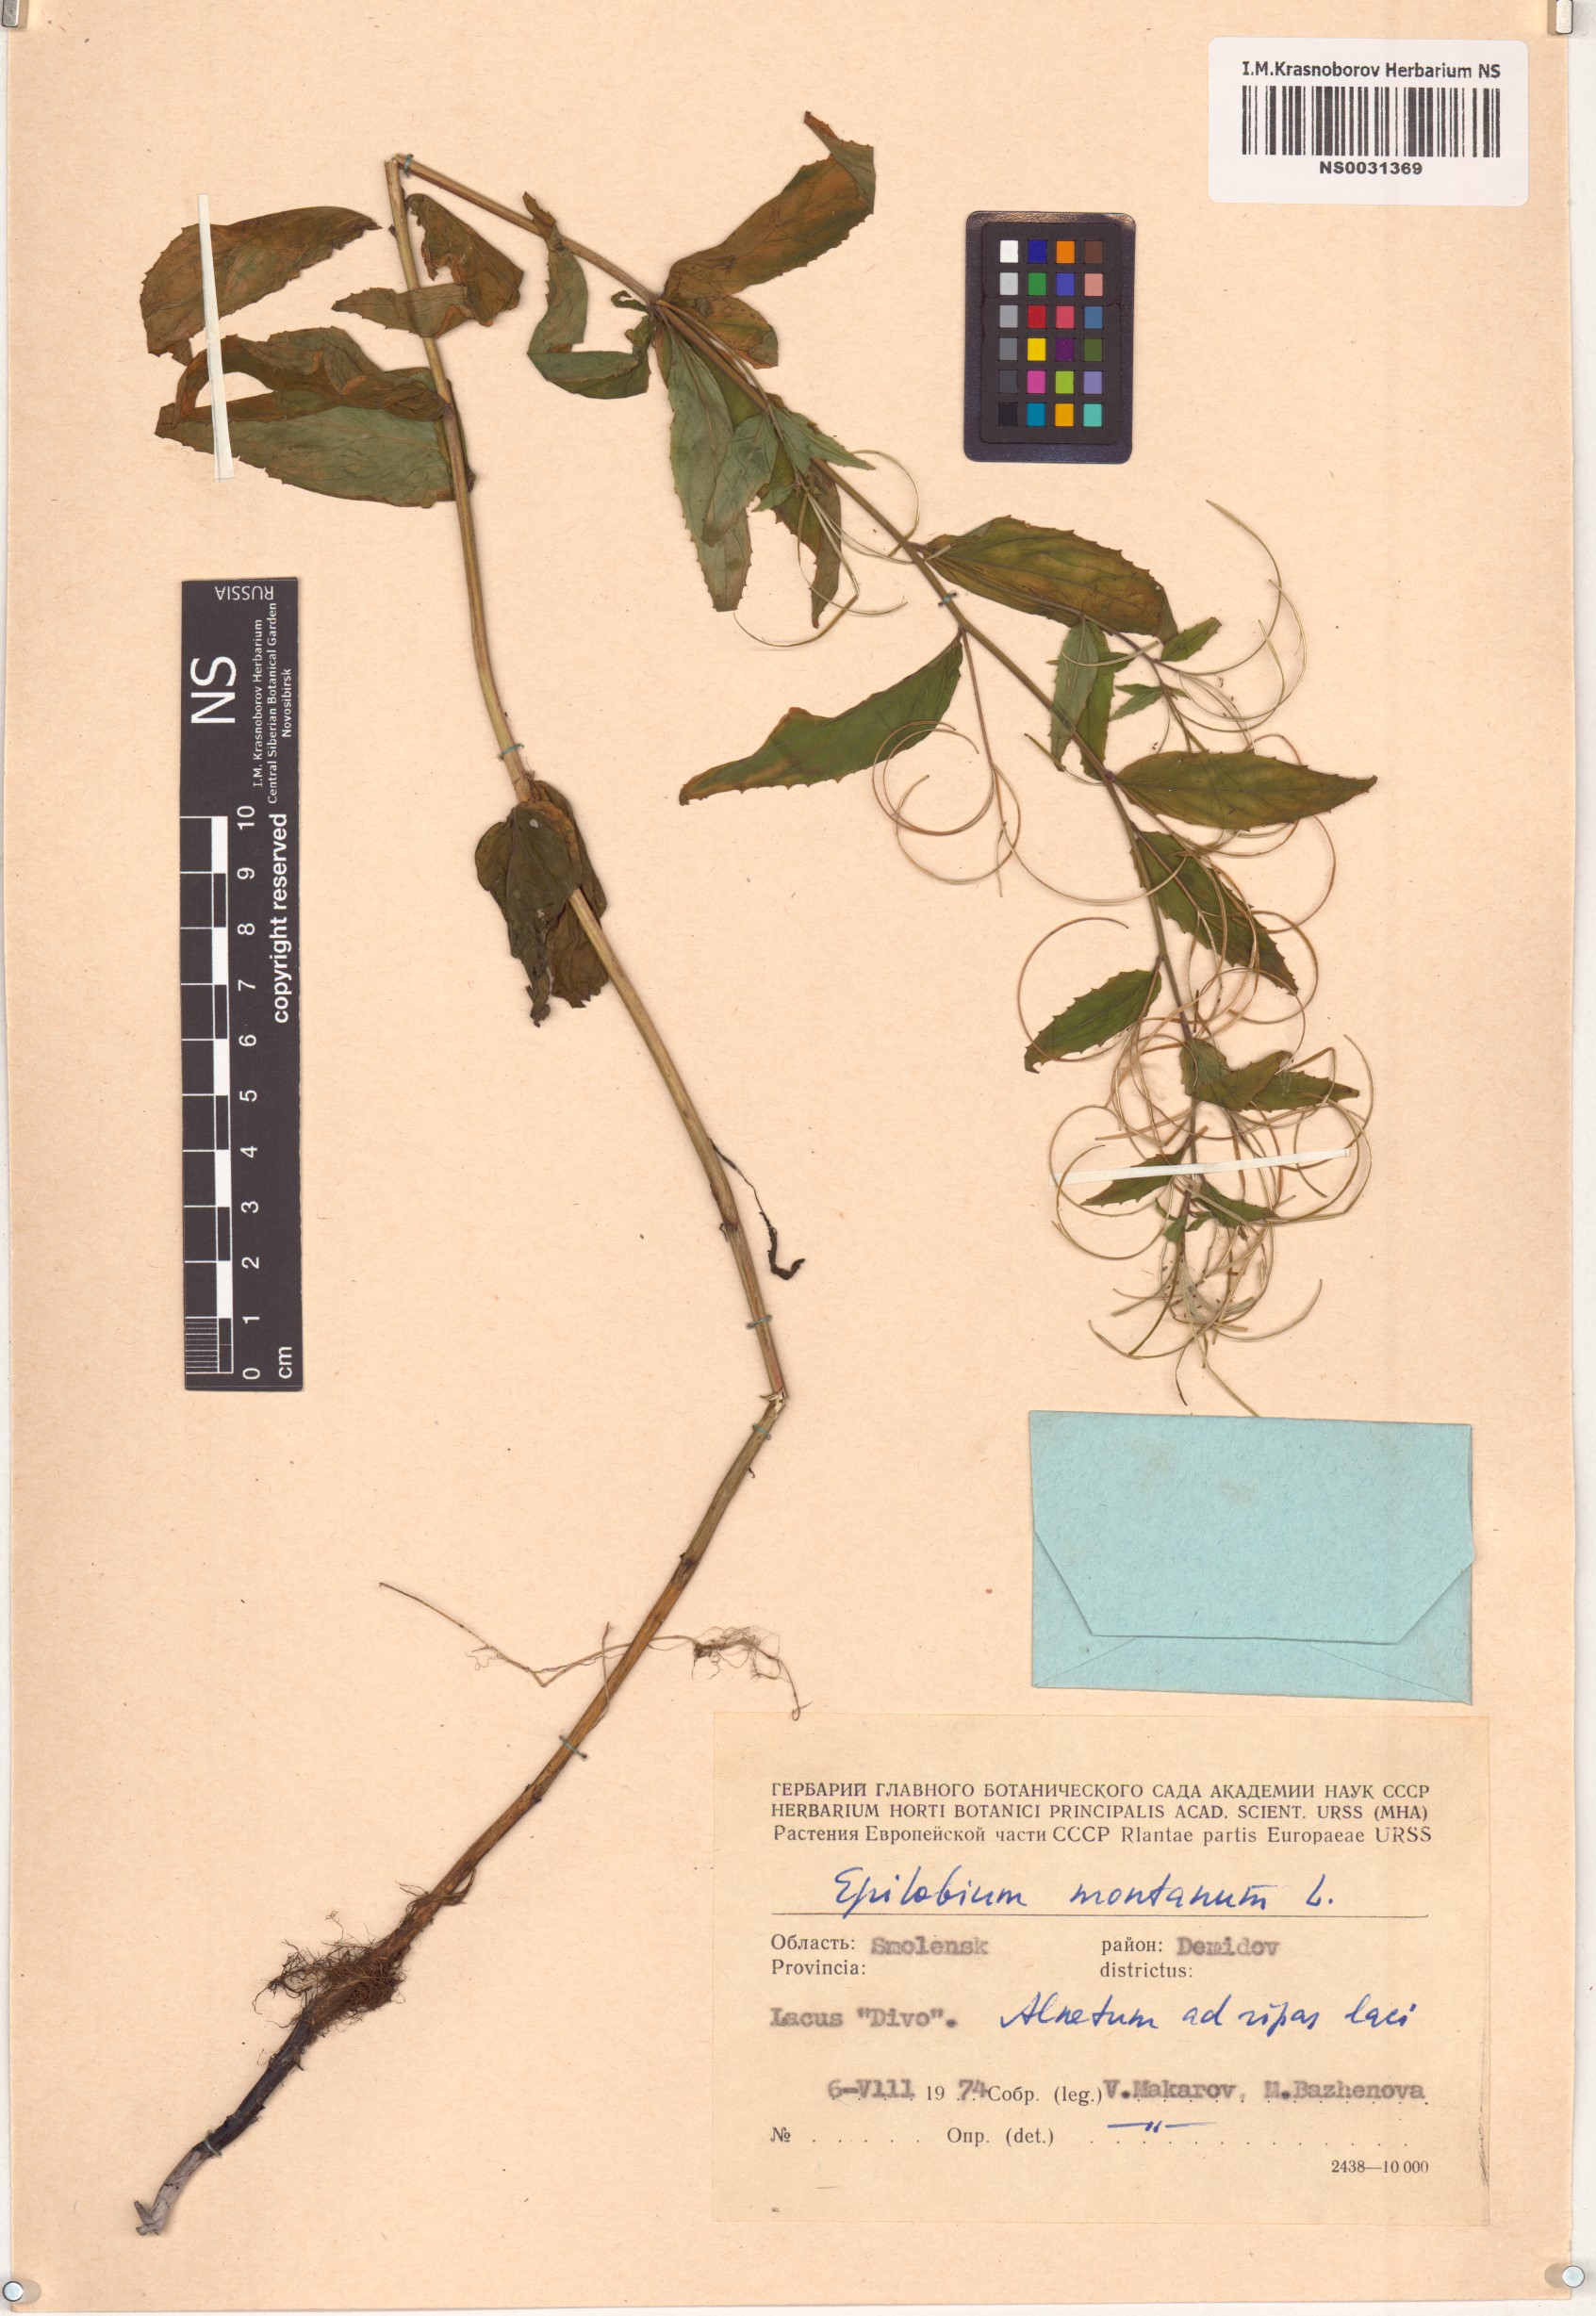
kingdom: Plantae
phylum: Tracheophyta
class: Magnoliopsida
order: Myrtales
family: Onagraceae
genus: Epilobium
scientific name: Epilobium montanum
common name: Broad-leaved willowherb
